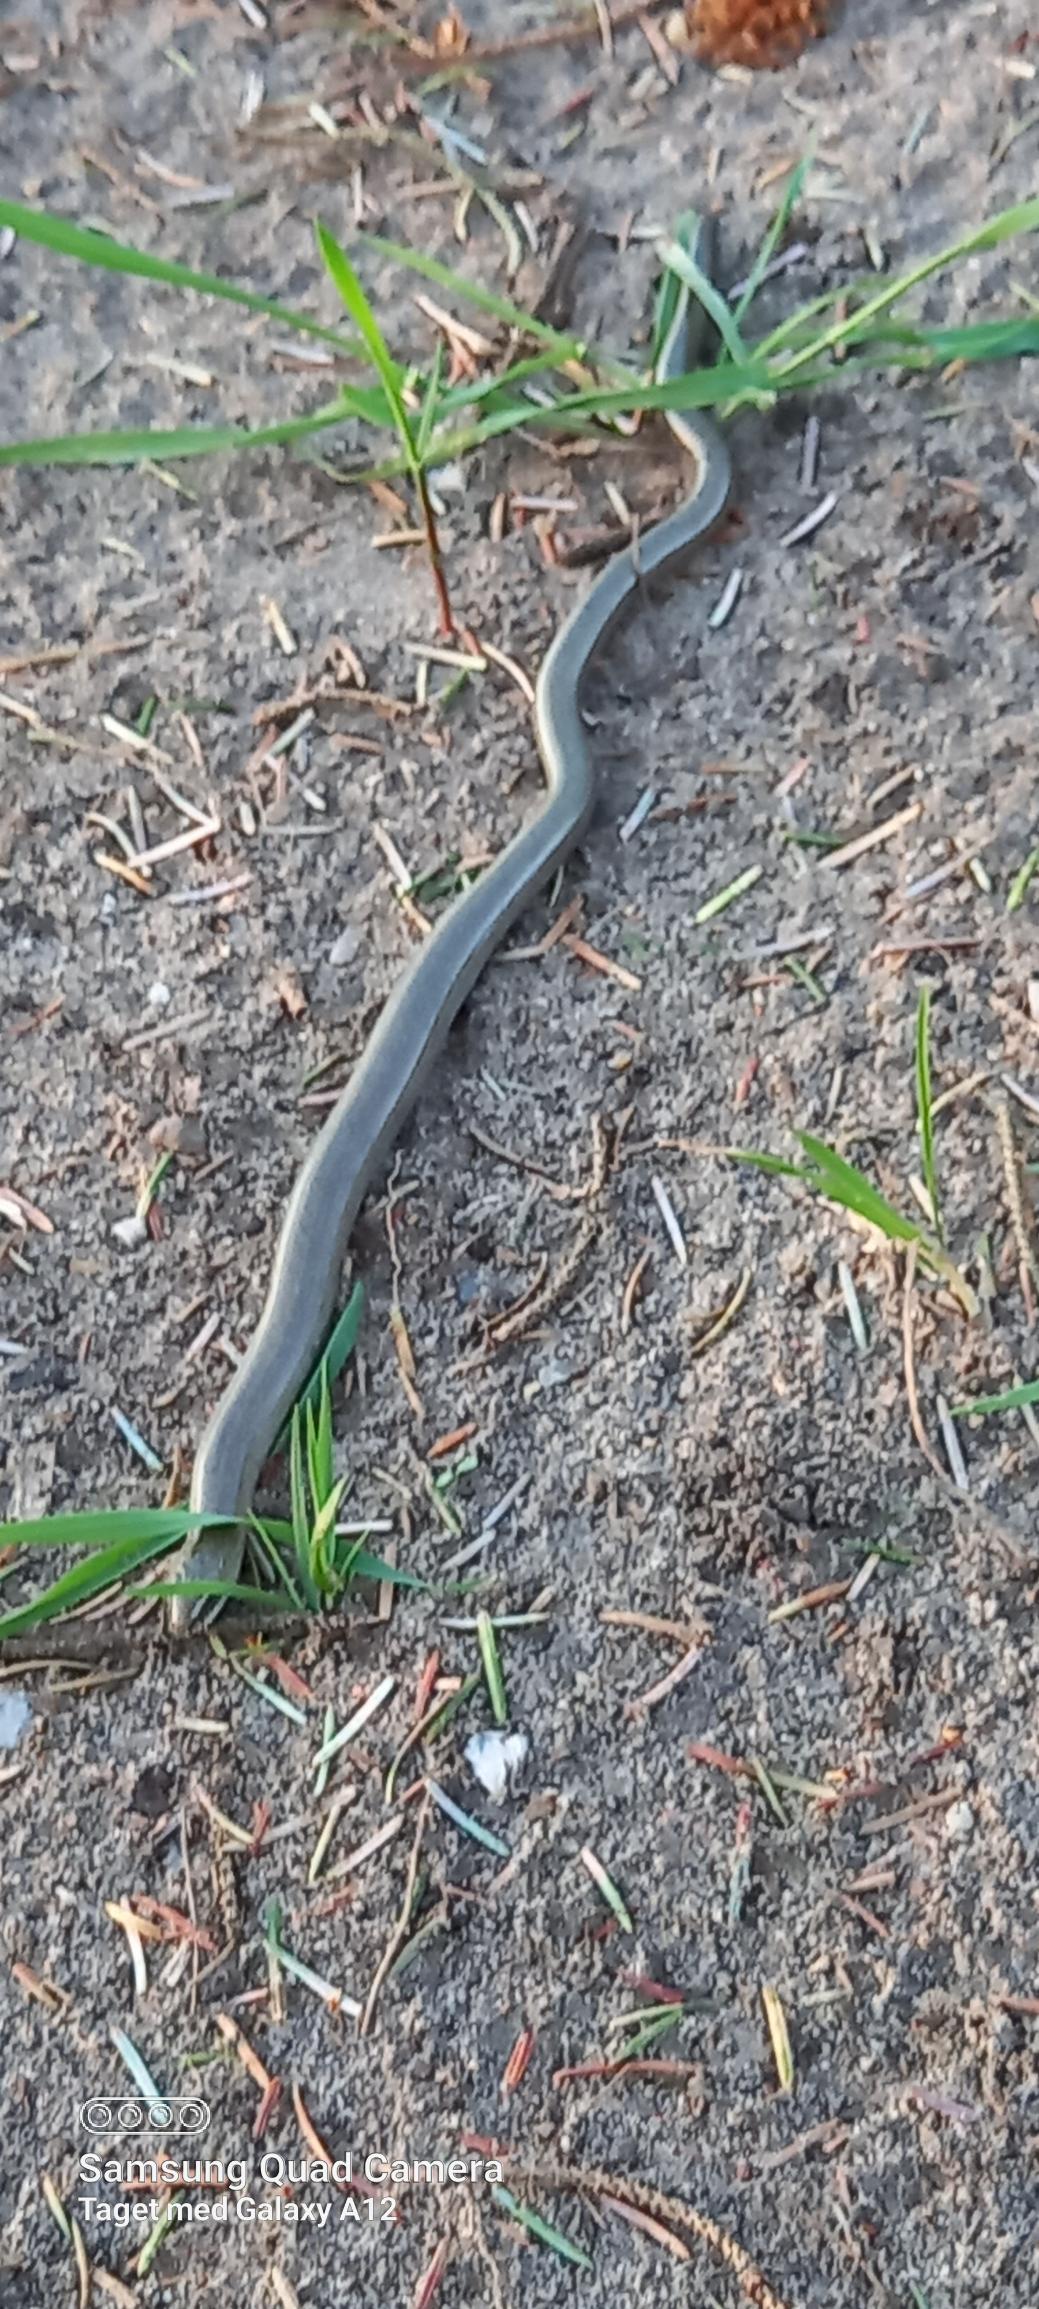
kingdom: Animalia
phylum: Chordata
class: Squamata
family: Anguidae
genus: Anguis
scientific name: Anguis fragilis
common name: Stålorm
